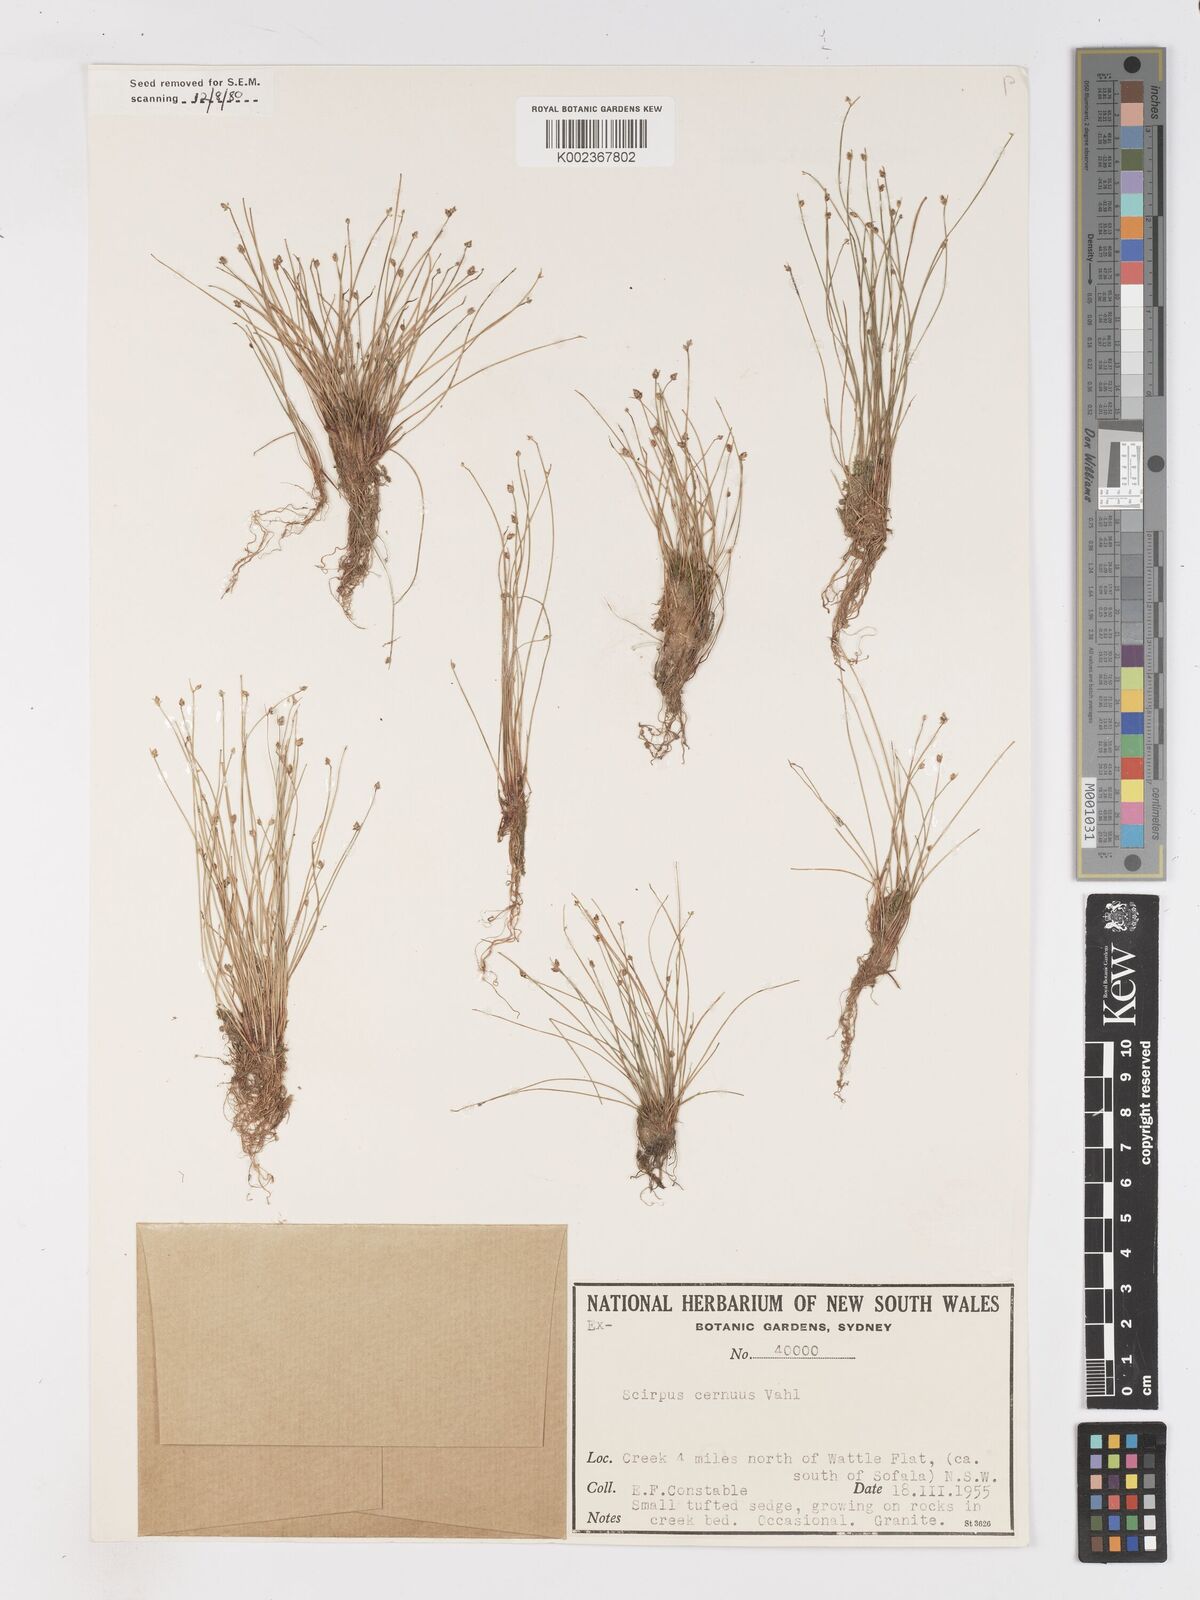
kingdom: Plantae
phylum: Tracheophyta
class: Liliopsida
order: Poales
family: Cyperaceae
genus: Isolepis
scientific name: Isolepis cernua
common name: Slender club-rush
